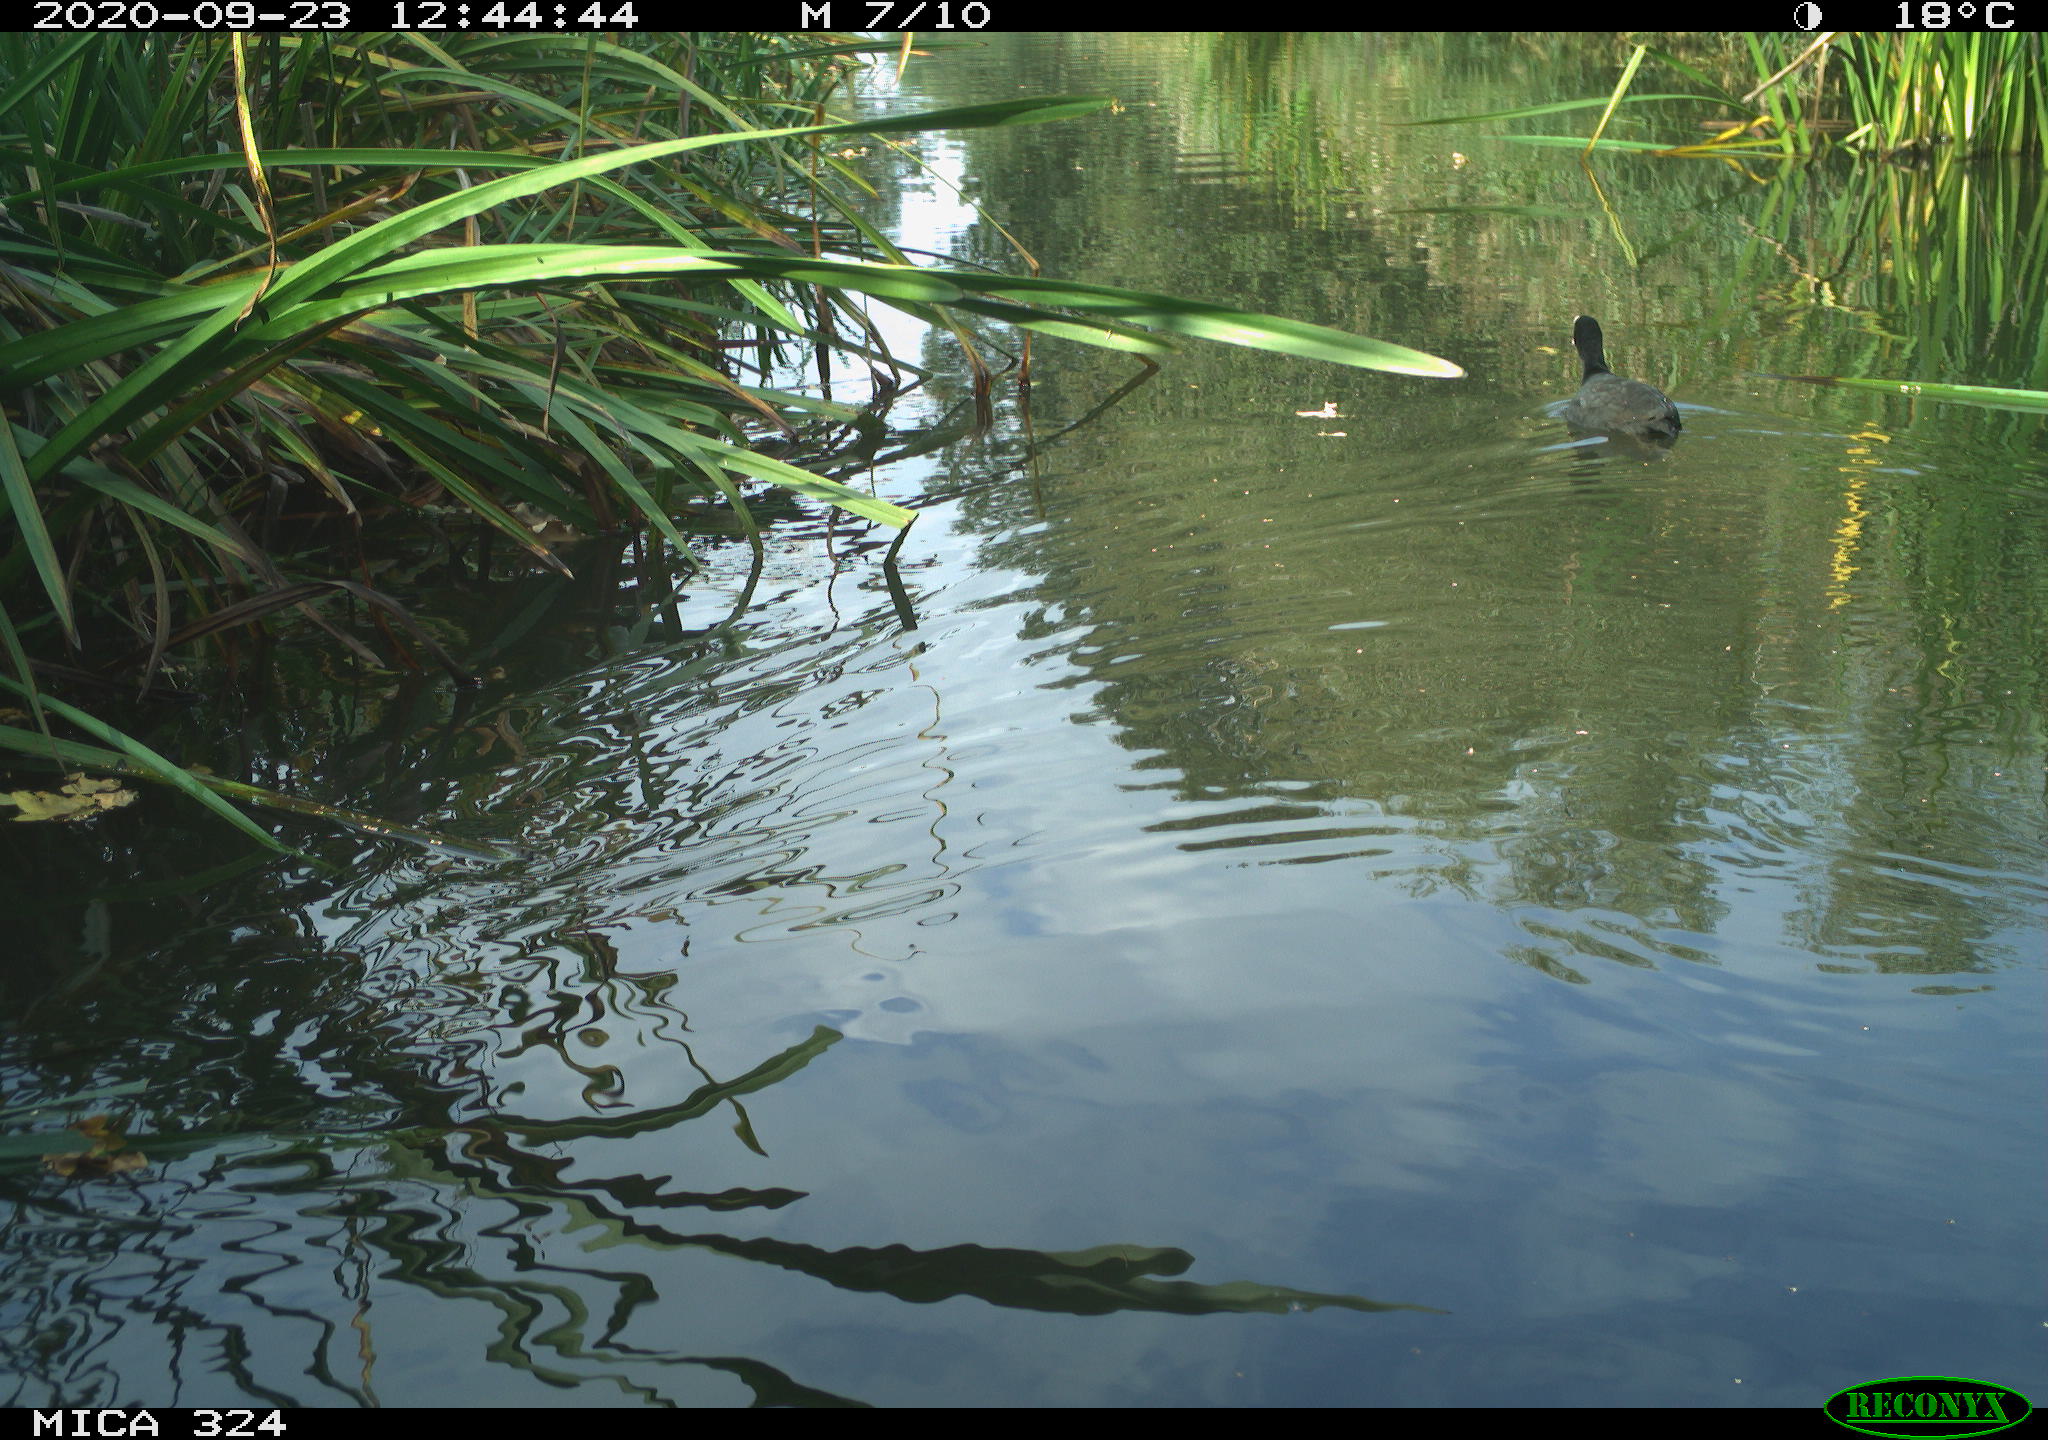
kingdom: Animalia
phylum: Chordata
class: Aves
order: Gruiformes
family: Rallidae
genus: Fulica
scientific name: Fulica atra
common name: Eurasian coot
